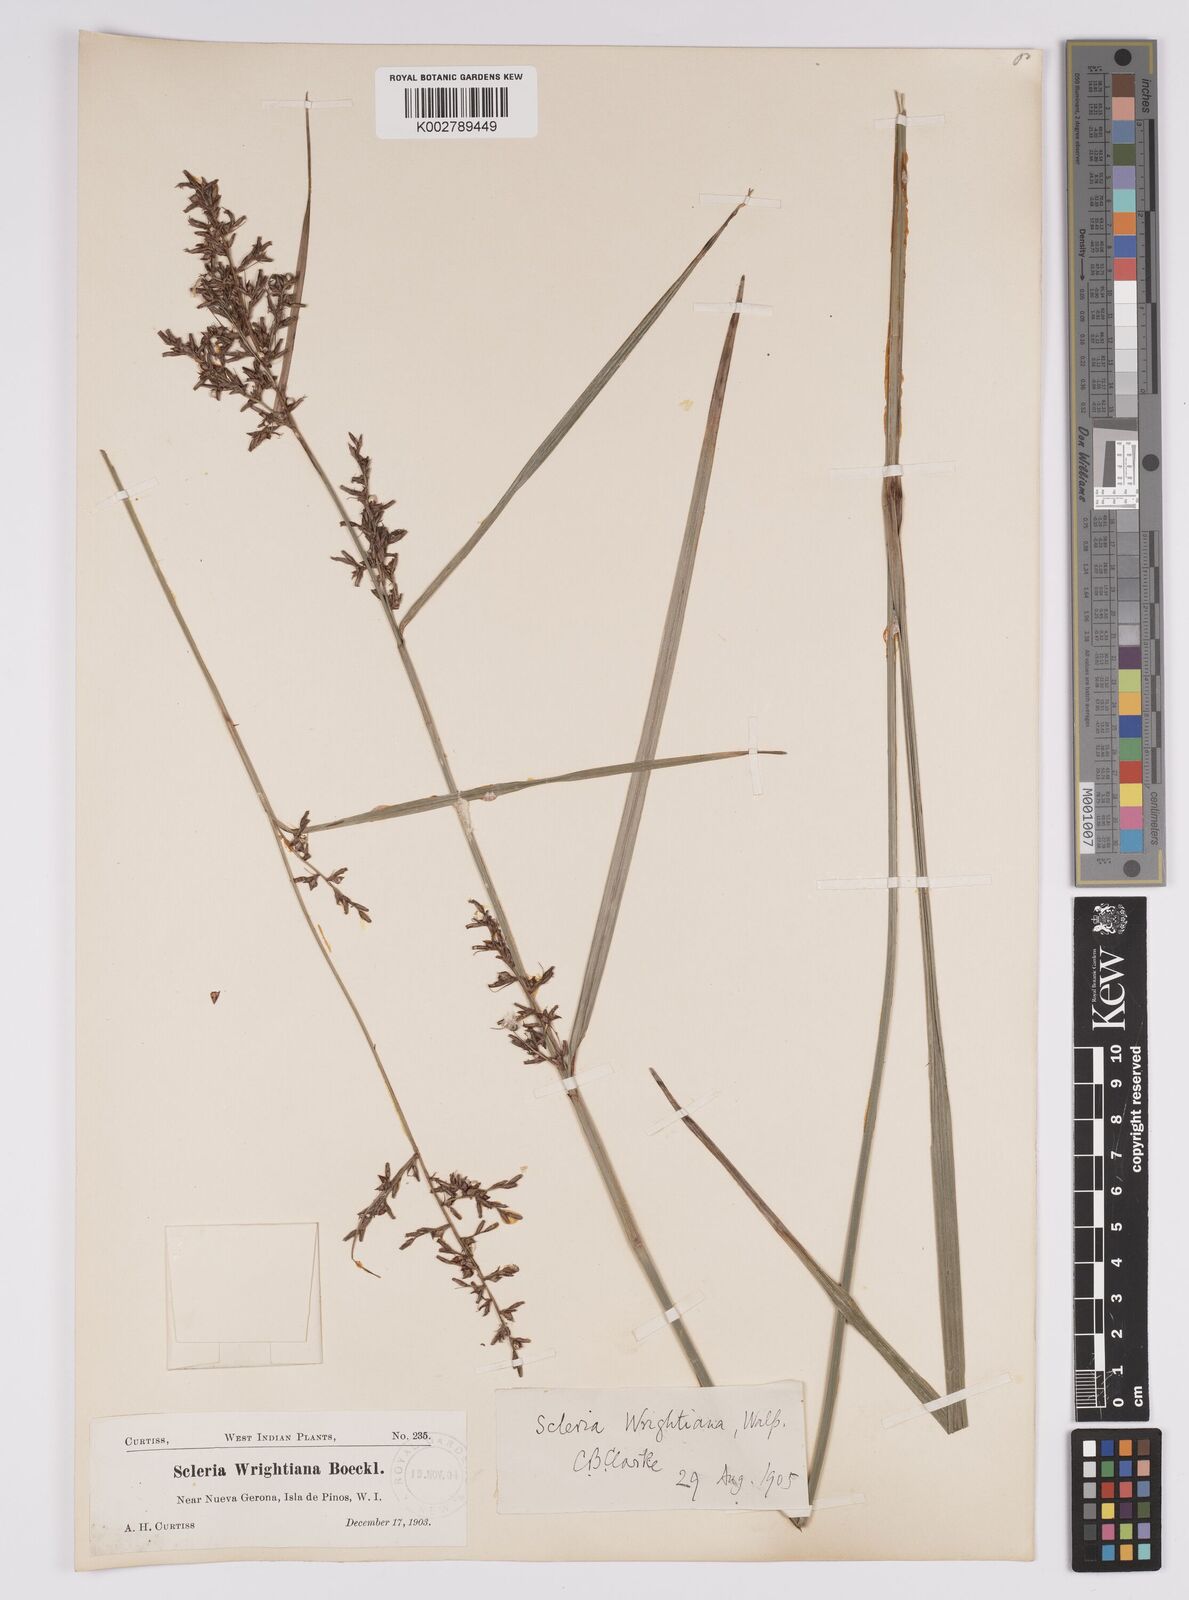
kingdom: Plantae
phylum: Tracheophyta
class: Liliopsida
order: Poales
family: Cyperaceae
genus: Scleria
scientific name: Scleria wrightiana
